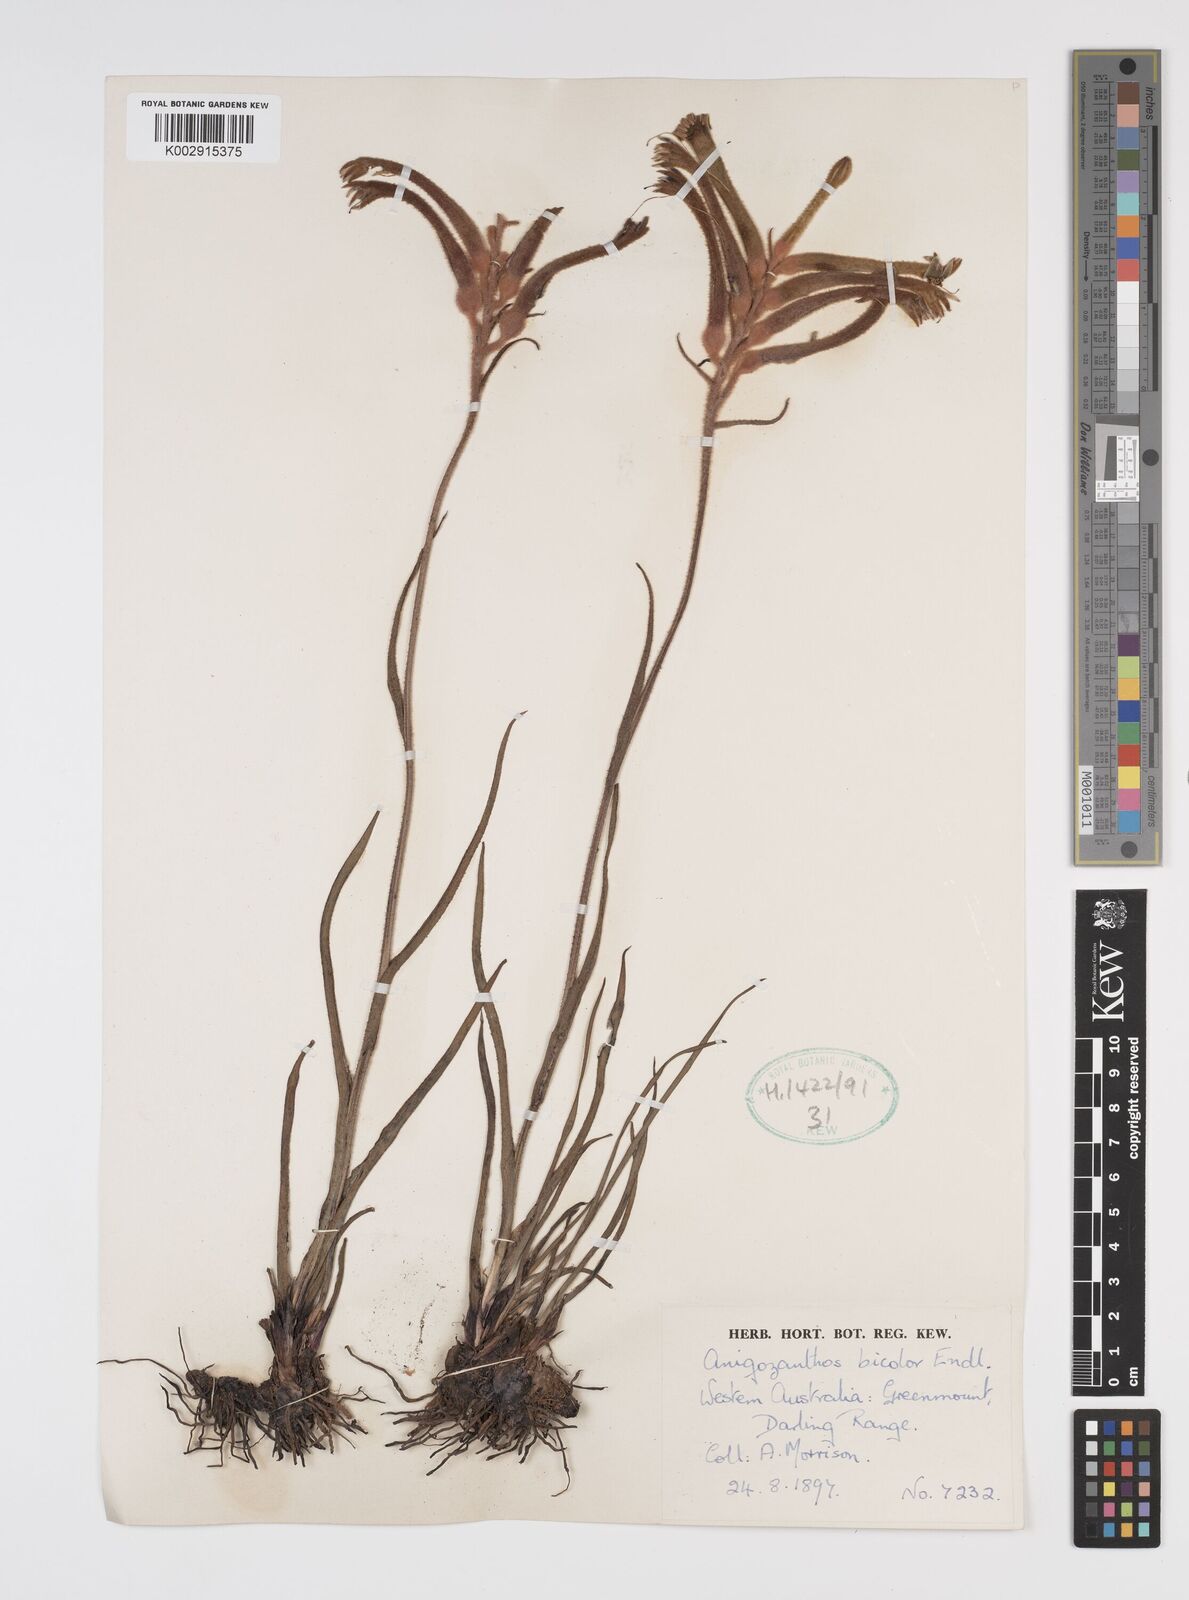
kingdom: Plantae
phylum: Tracheophyta
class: Liliopsida
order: Commelinales
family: Haemodoraceae
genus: Anigozanthos
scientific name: Anigozanthos bicolor
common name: Little kangaroo-paw
